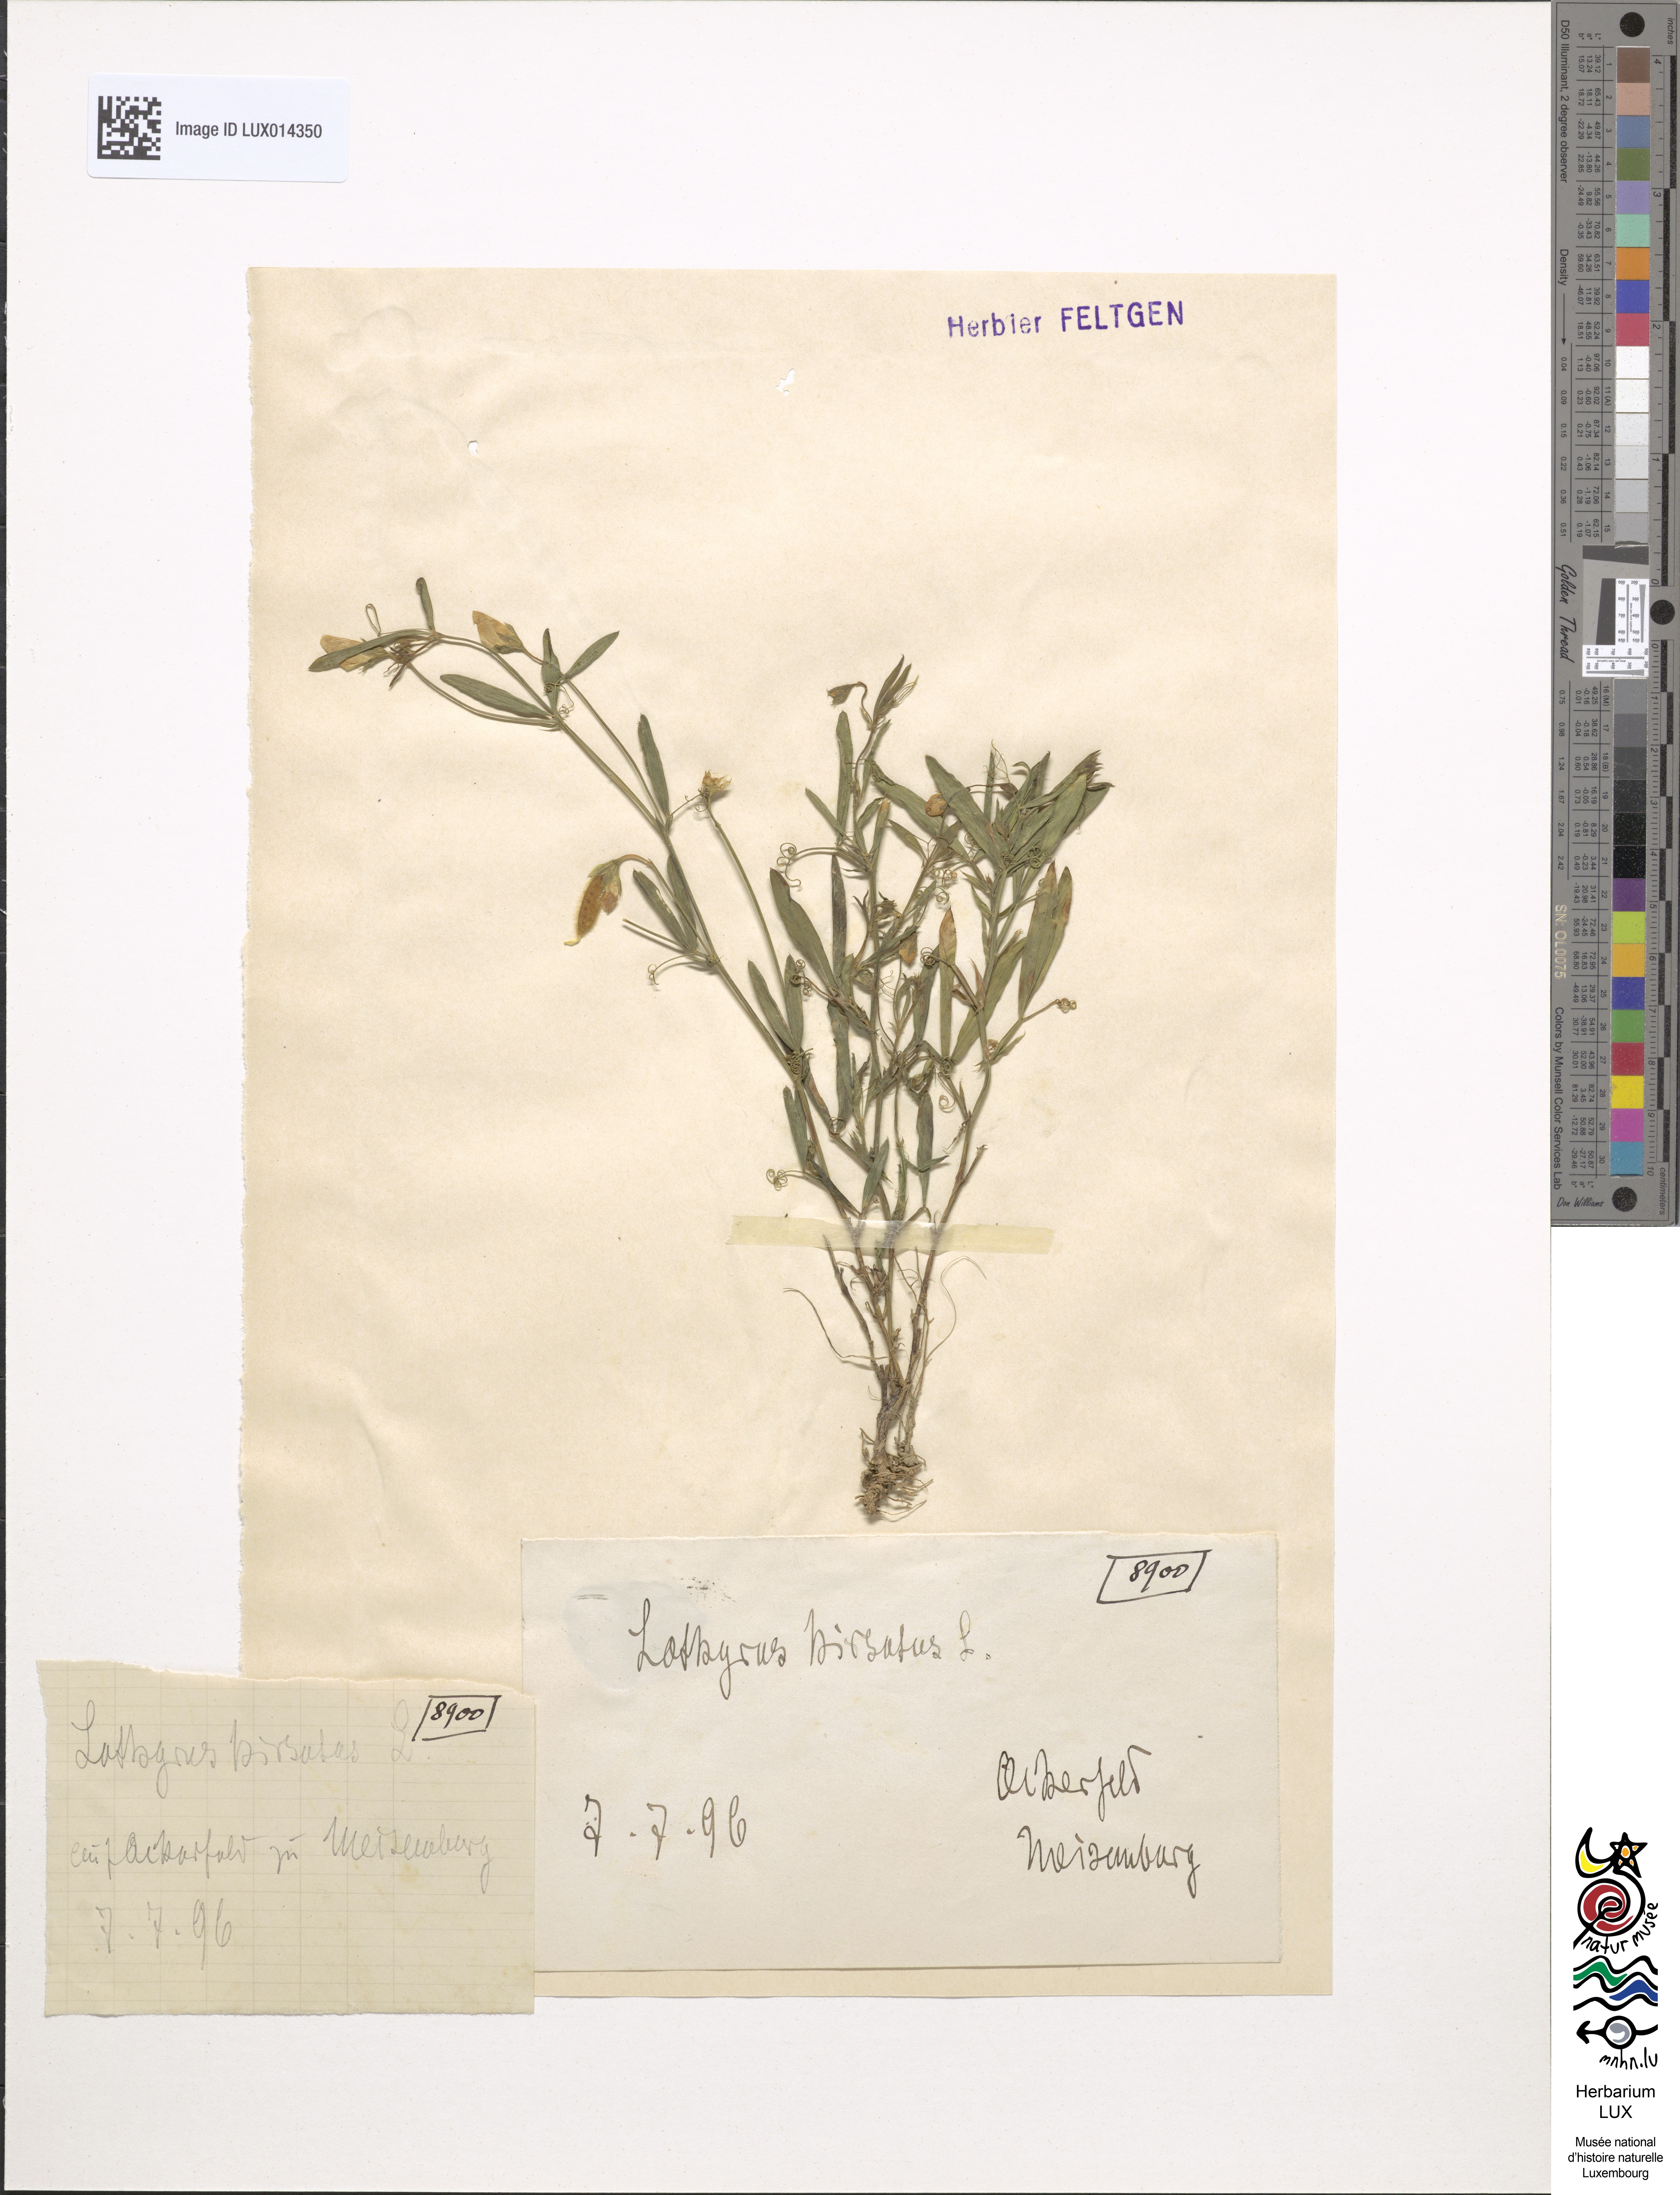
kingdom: Plantae
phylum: Tracheophyta
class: Magnoliopsida
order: Fabales
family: Fabaceae
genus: Lathyrus
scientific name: Lathyrus hirsutus
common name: Hairy vetchling
